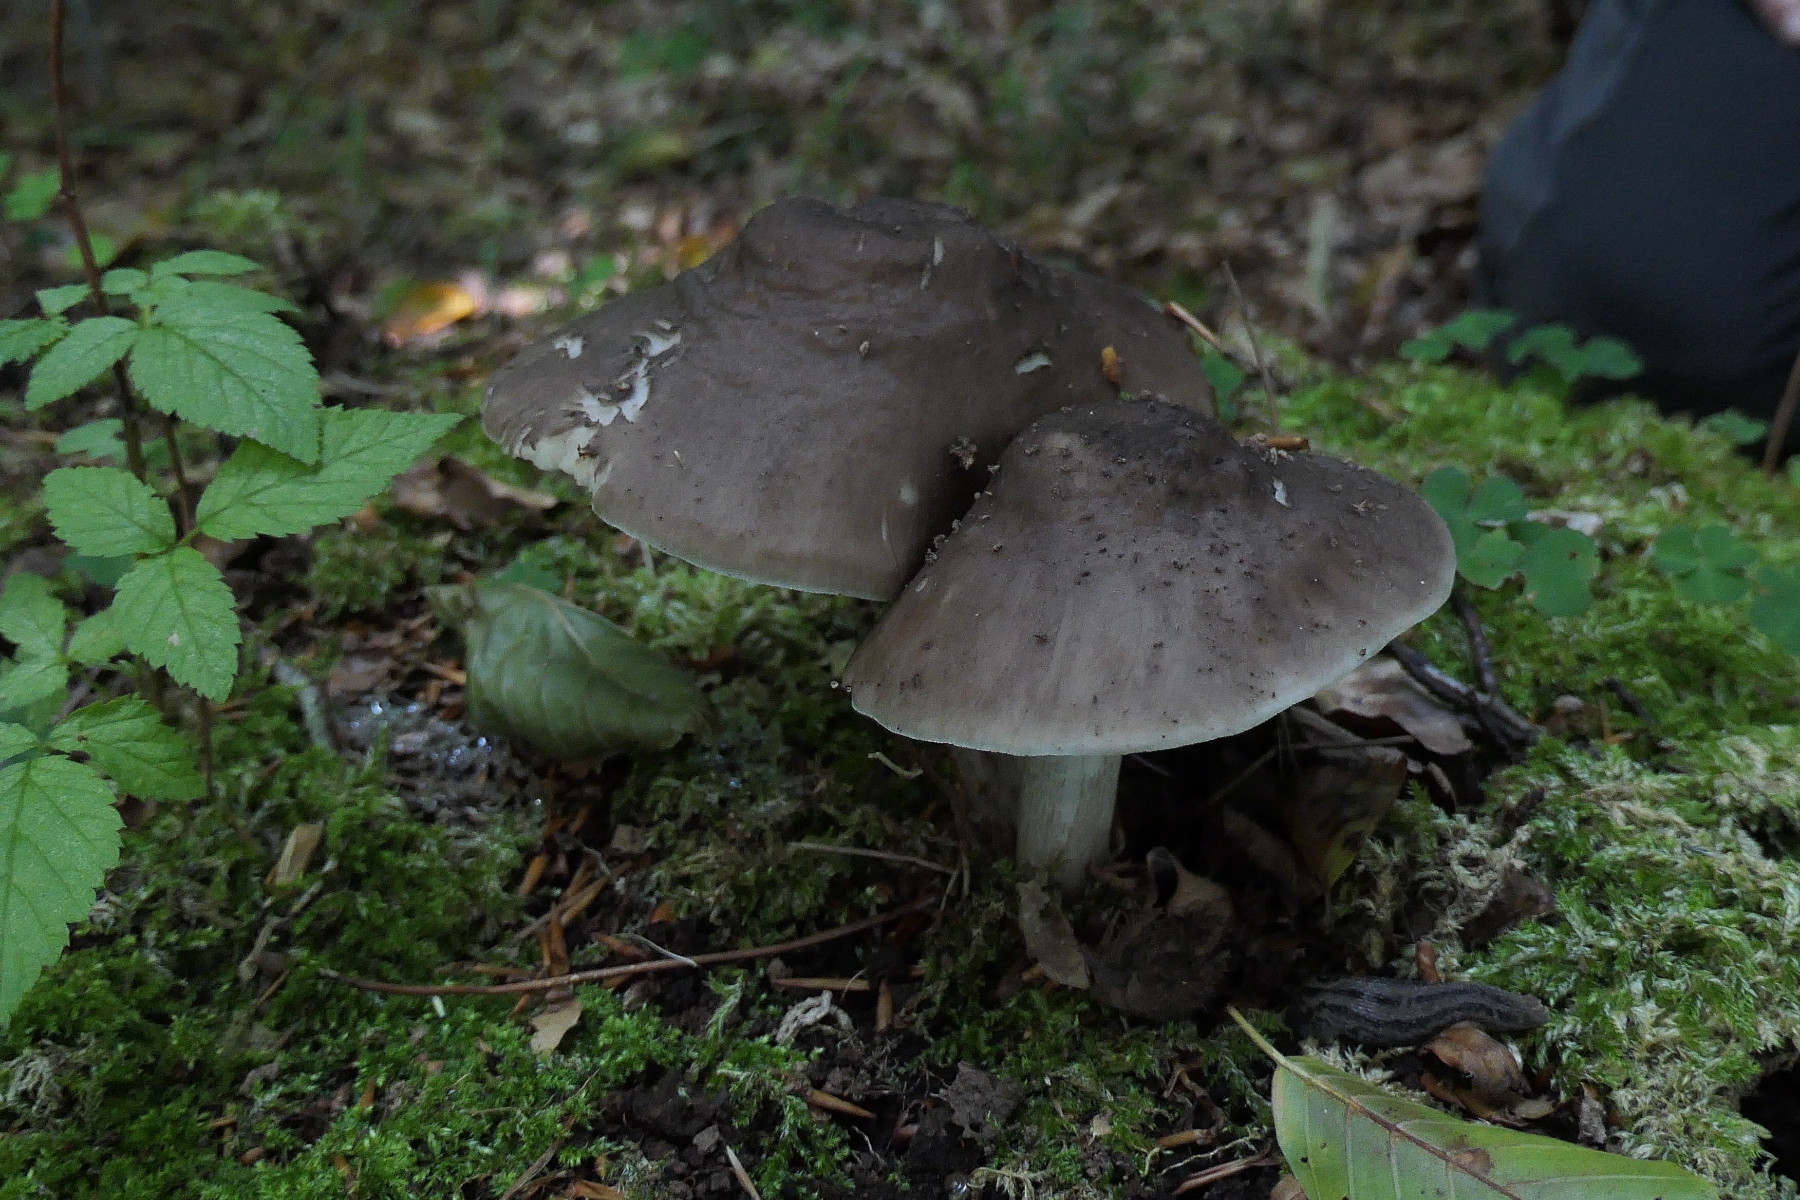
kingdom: Fungi
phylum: Basidiomycota
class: Agaricomycetes
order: Agaricales
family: Pluteaceae
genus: Pluteus
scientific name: Pluteus cervinus
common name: sodfarvet skærmhat
